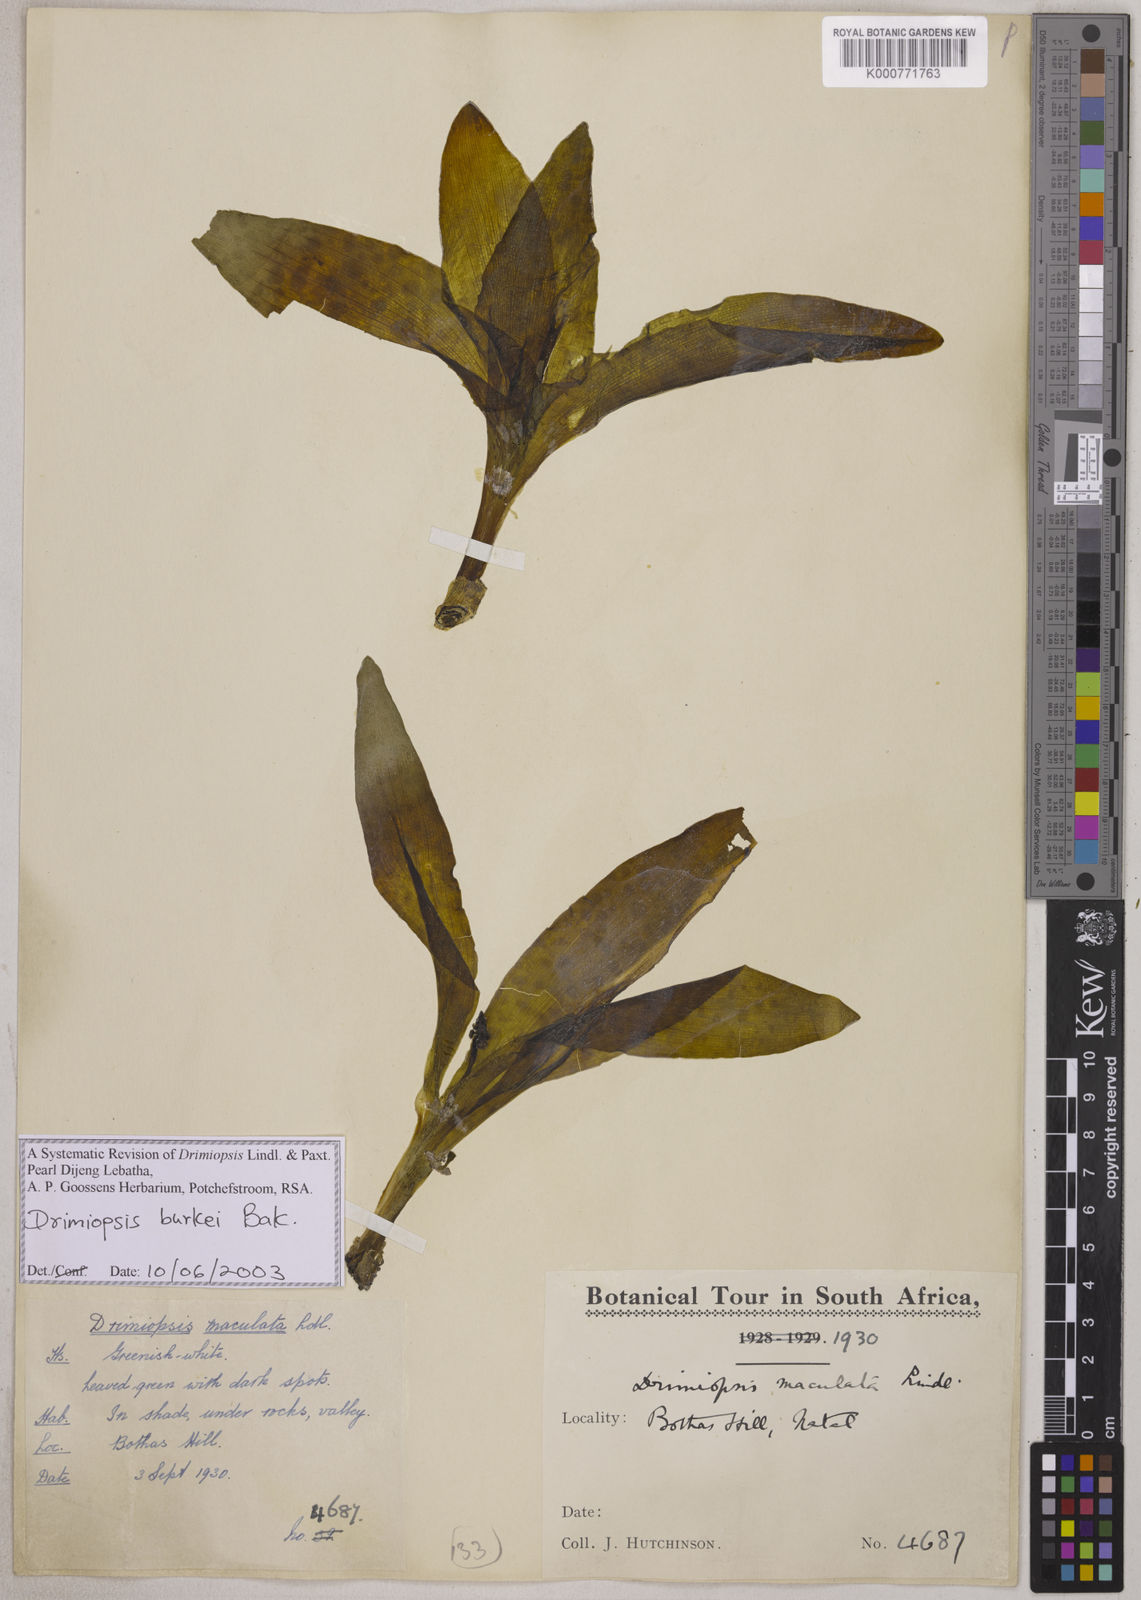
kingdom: Plantae
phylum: Tracheophyta
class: Liliopsida
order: Asparagales
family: Asparagaceae
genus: Drimiopsis
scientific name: Drimiopsis maculata
